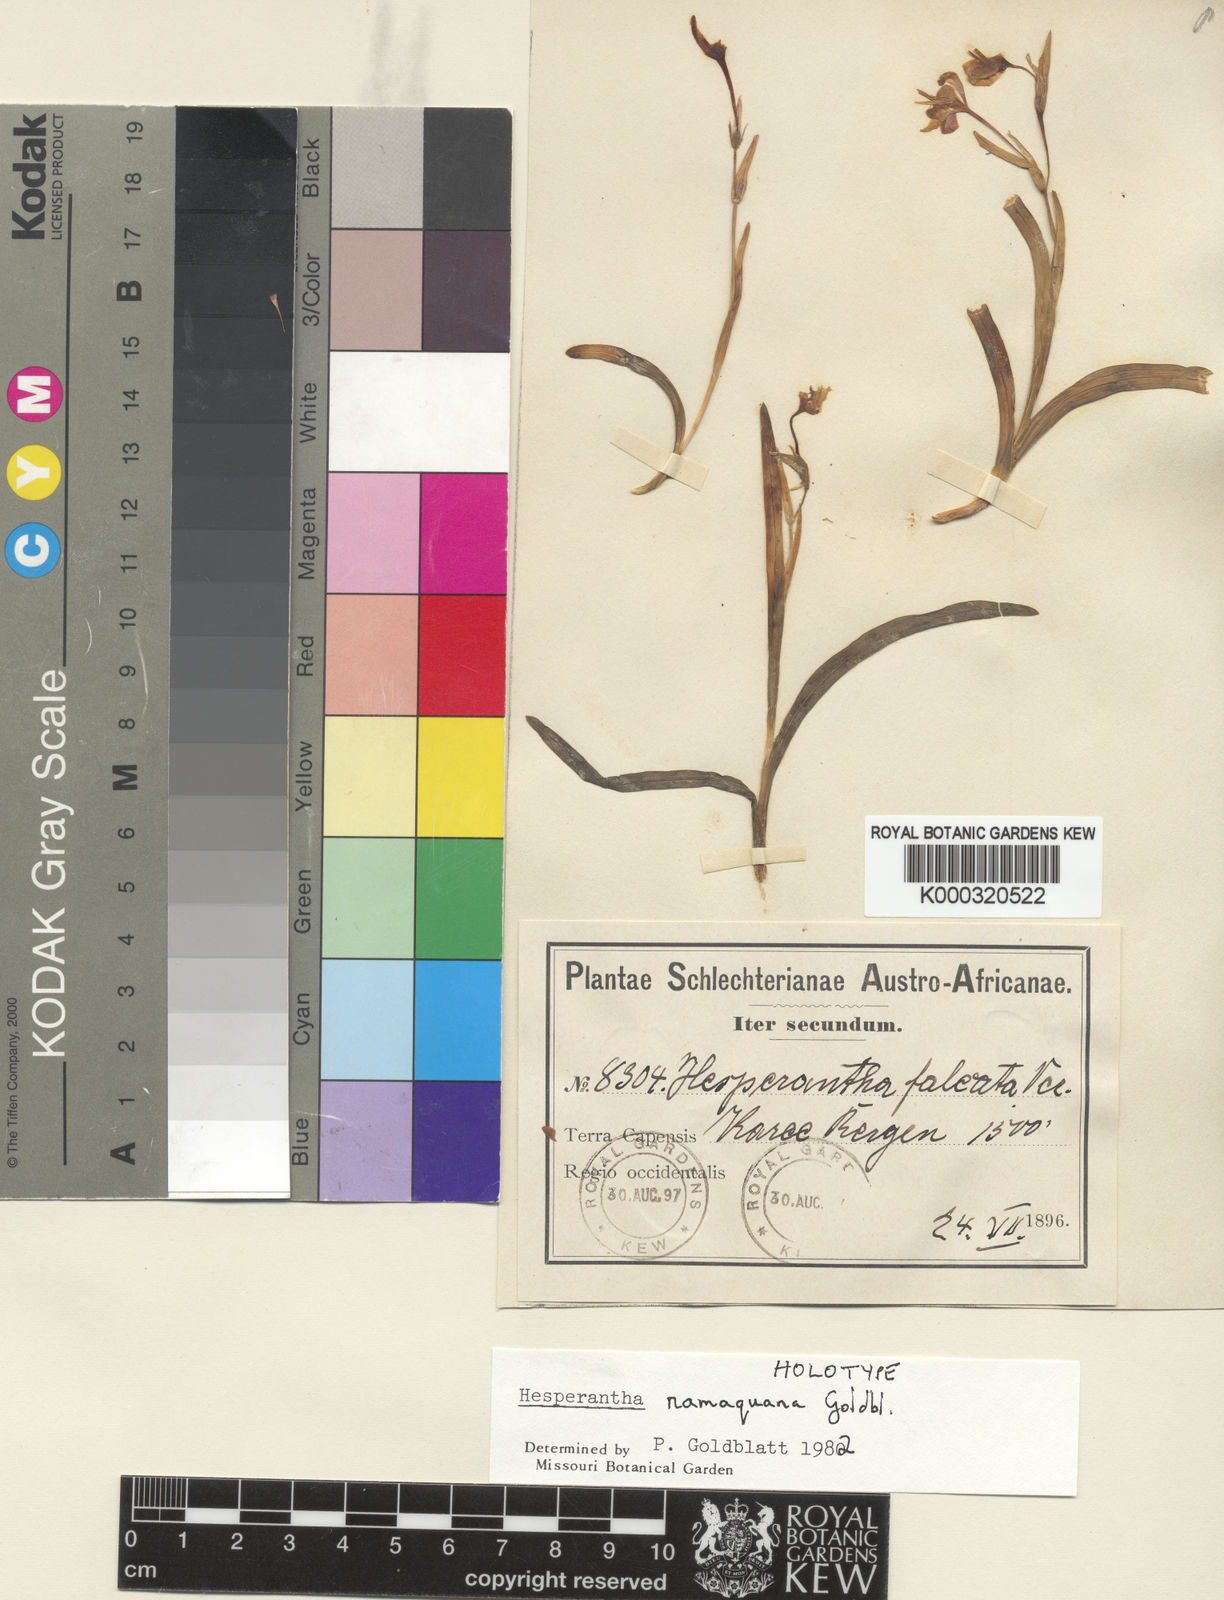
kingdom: Plantae
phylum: Tracheophyta
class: Liliopsida
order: Asparagales
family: Iridaceae
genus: Hesperantha
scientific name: Hesperantha namaquana
